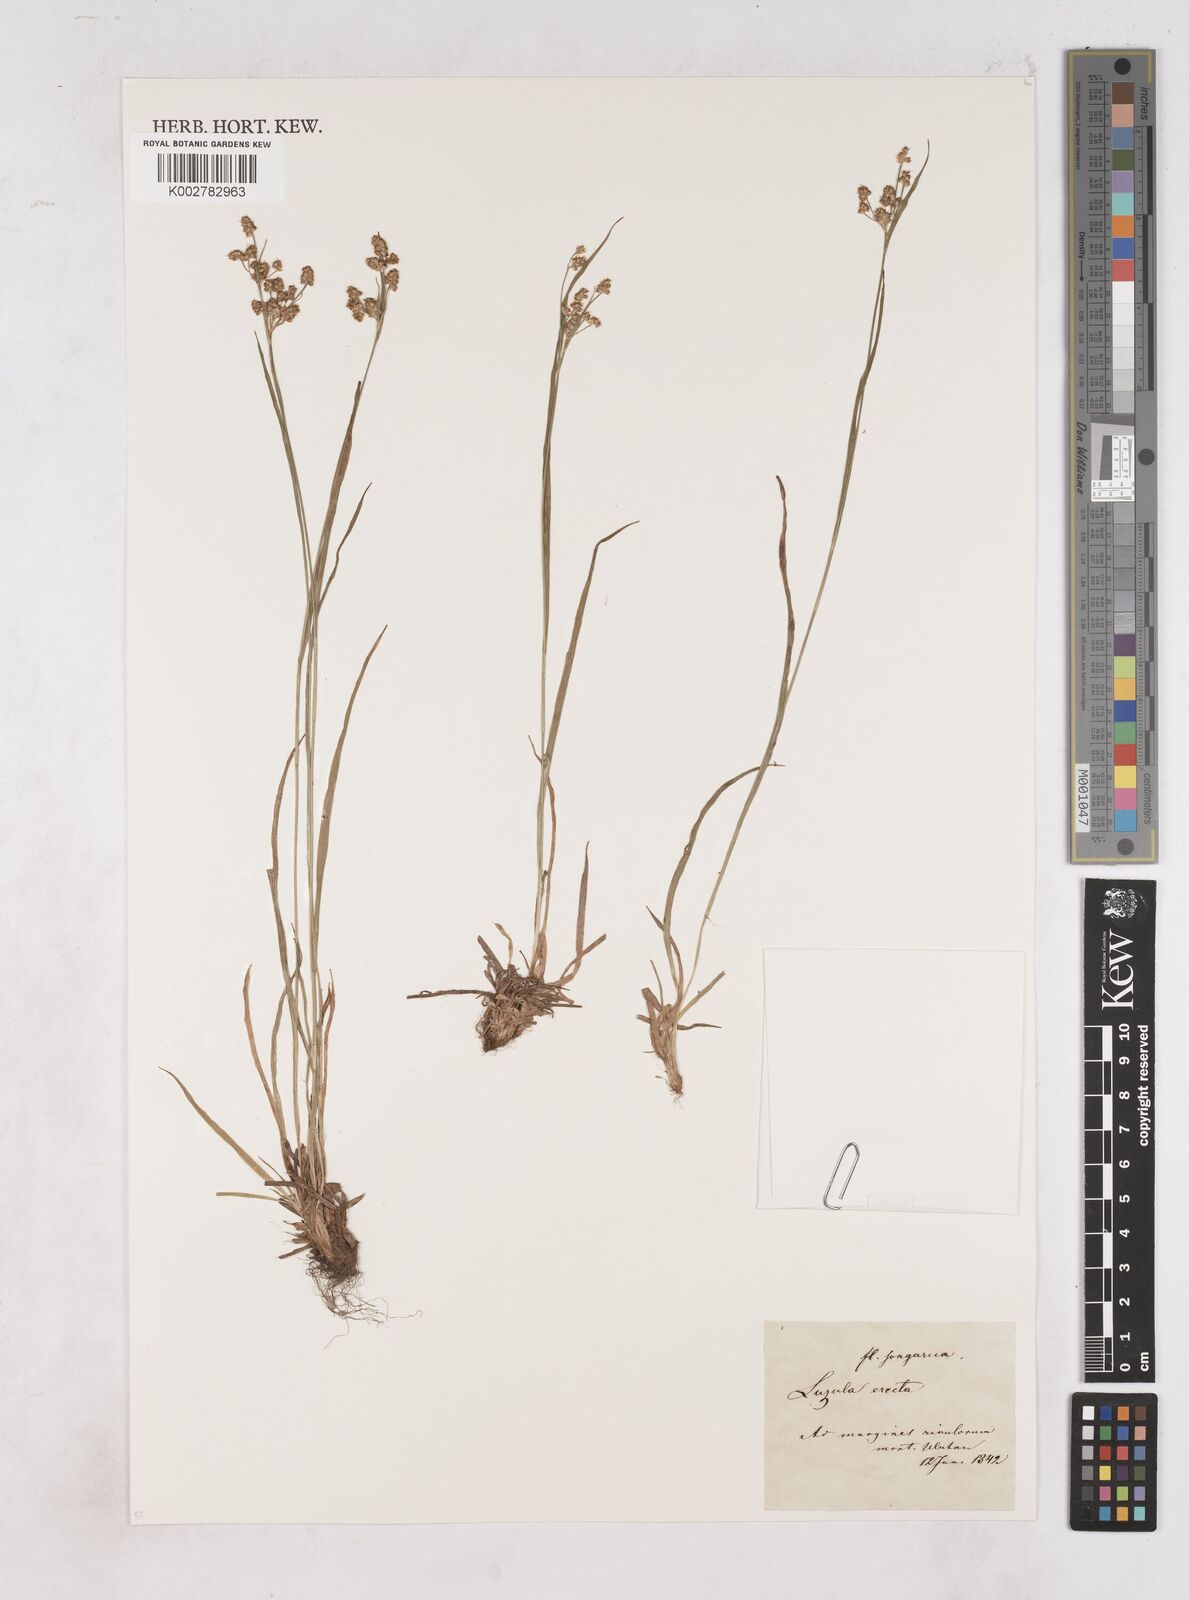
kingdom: Plantae
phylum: Tracheophyta
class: Liliopsida
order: Poales
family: Juncaceae
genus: Luzula
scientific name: Luzula campestris
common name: Field wood-rush
